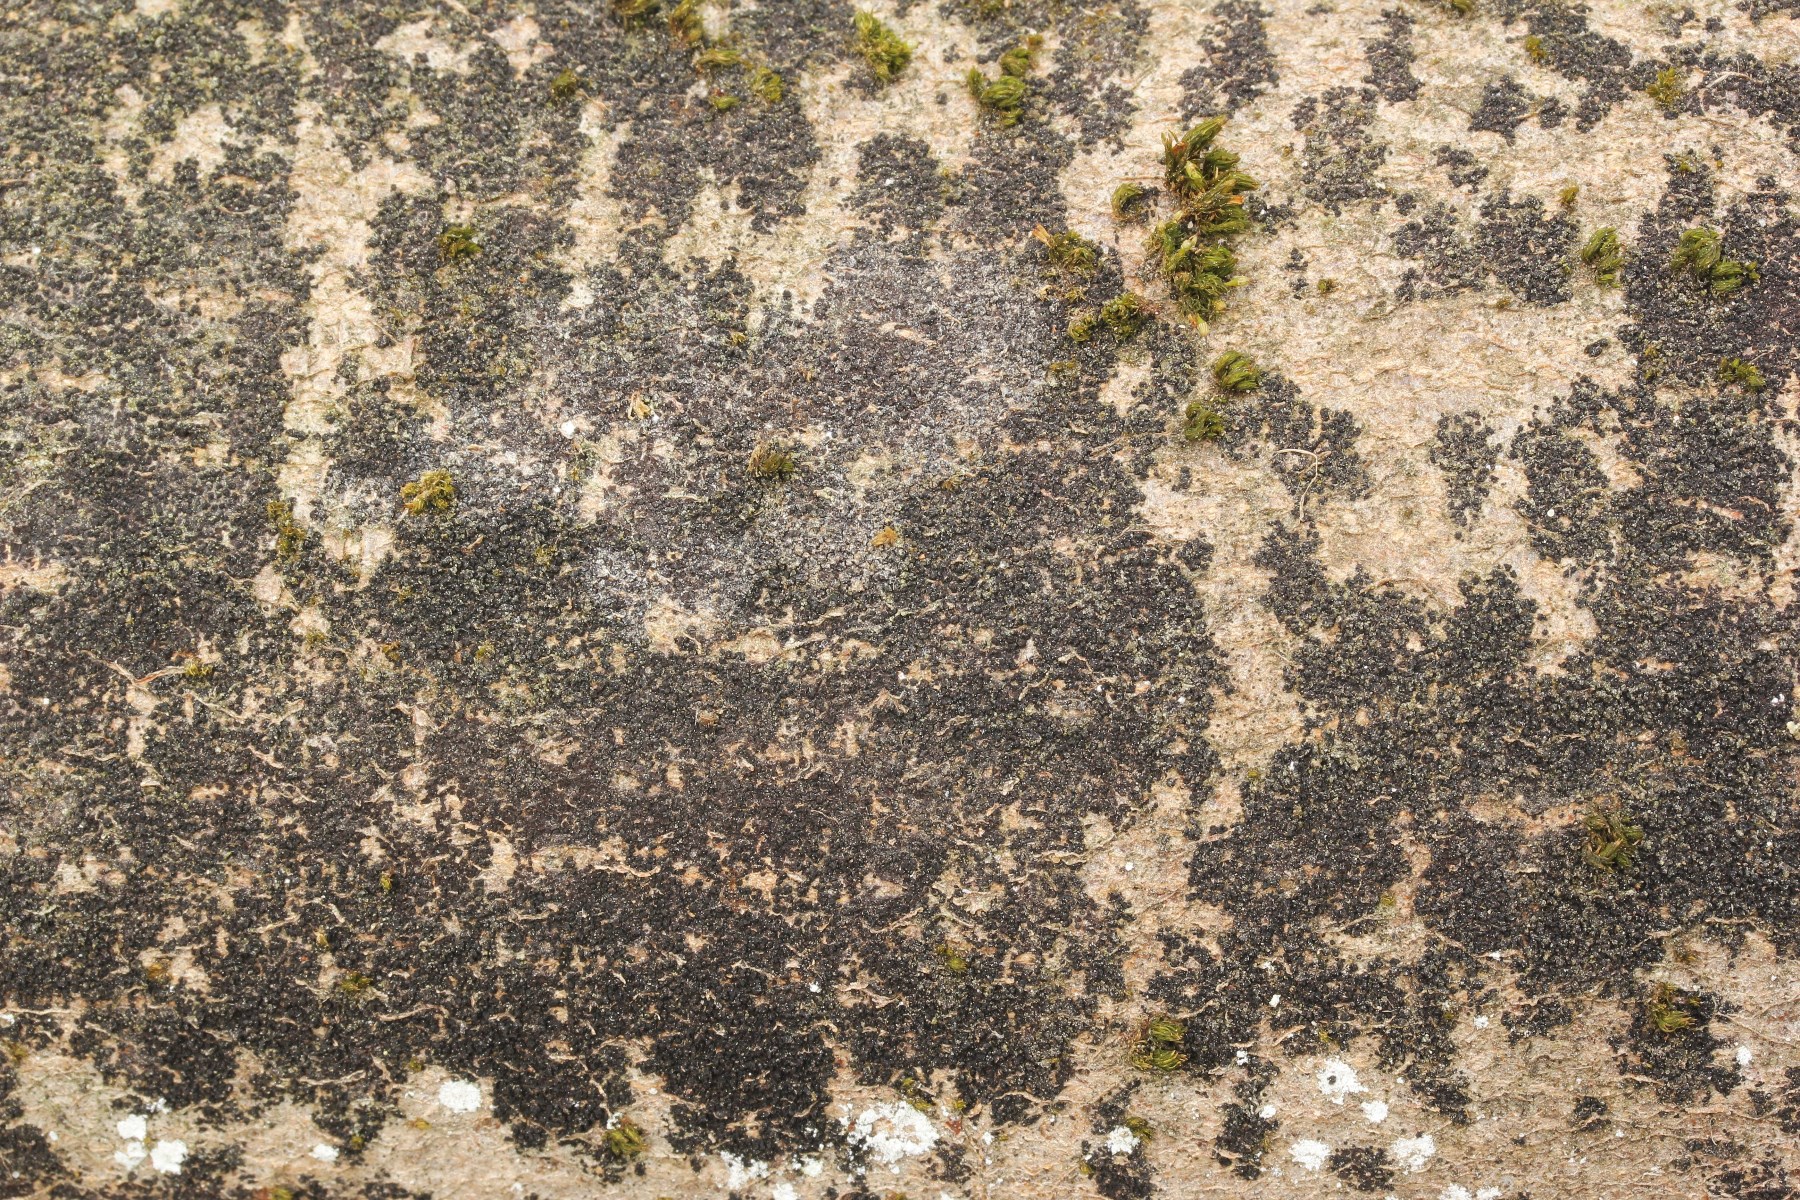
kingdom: Fungi
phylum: Ascomycota
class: Leotiomycetes
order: Rhytismatales
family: Ascodichaenaceae
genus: Ascodichaena
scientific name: Ascodichaena rugosa
